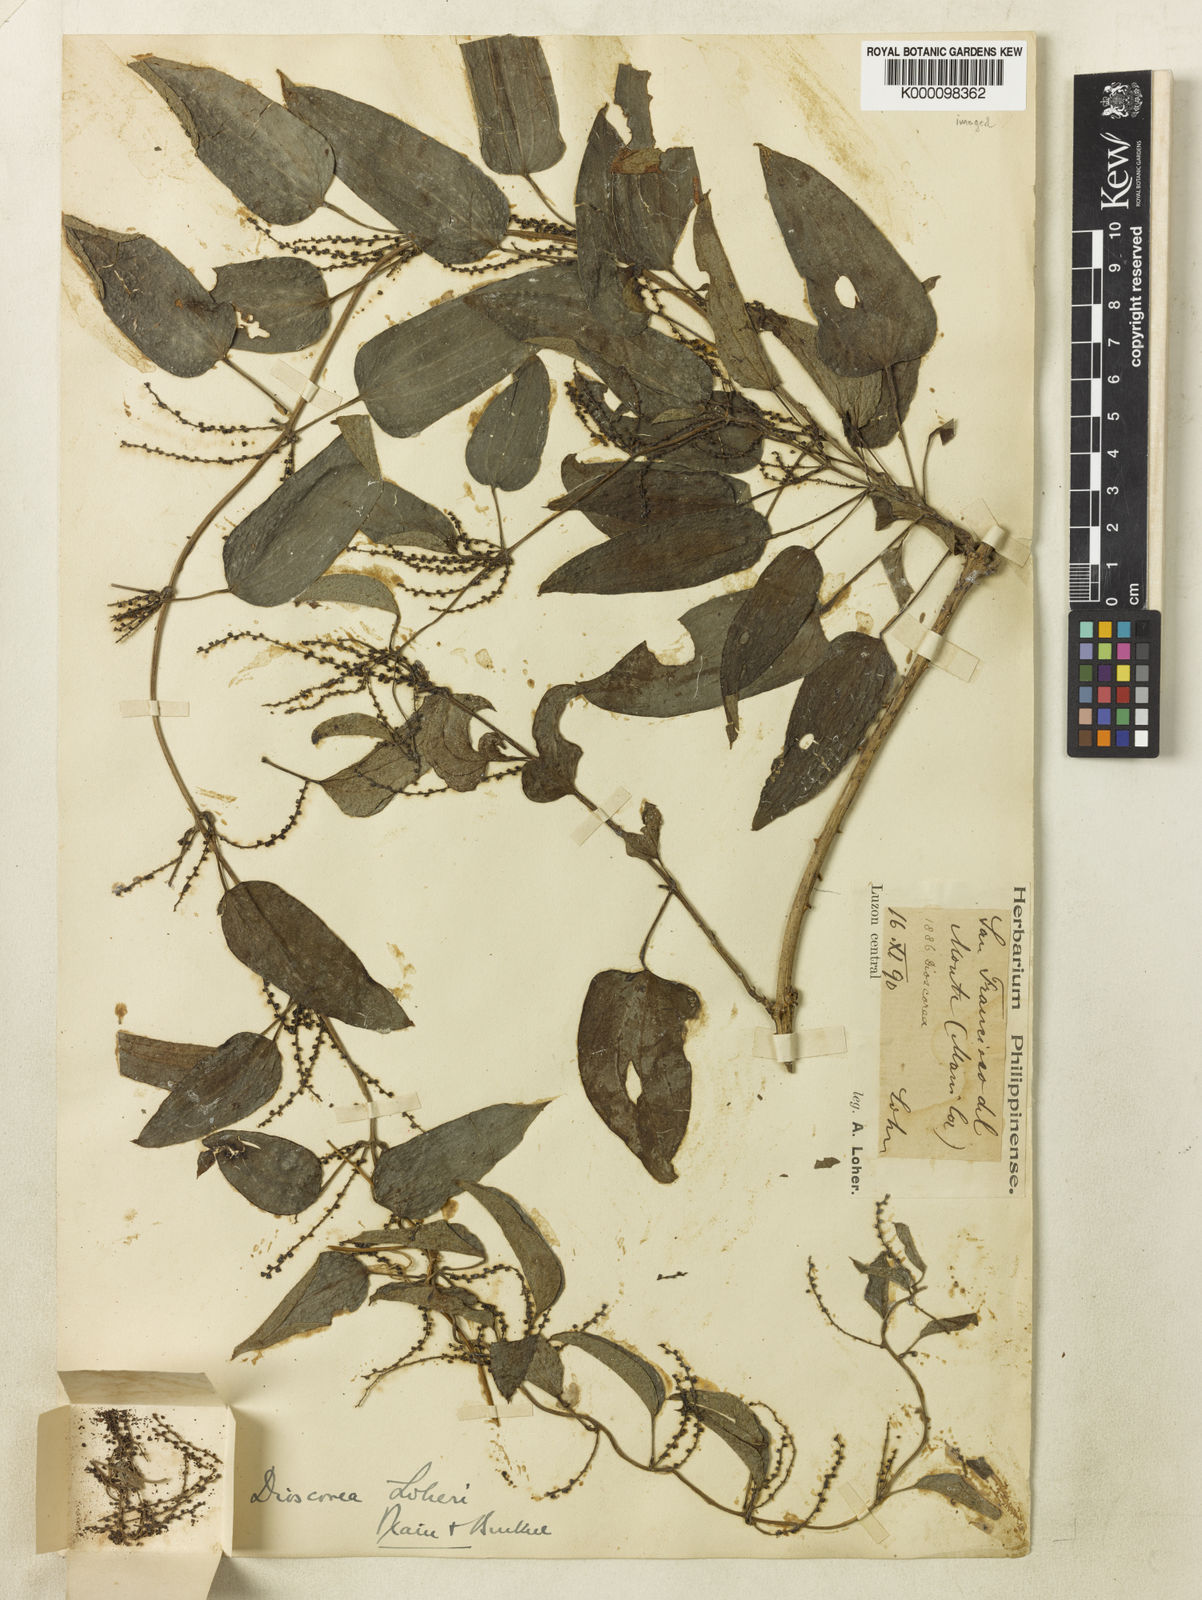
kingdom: Plantae
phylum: Tracheophyta
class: Liliopsida
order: Dioscoreales
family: Dioscoreaceae
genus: Dioscorea
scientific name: Dioscorea loheri
